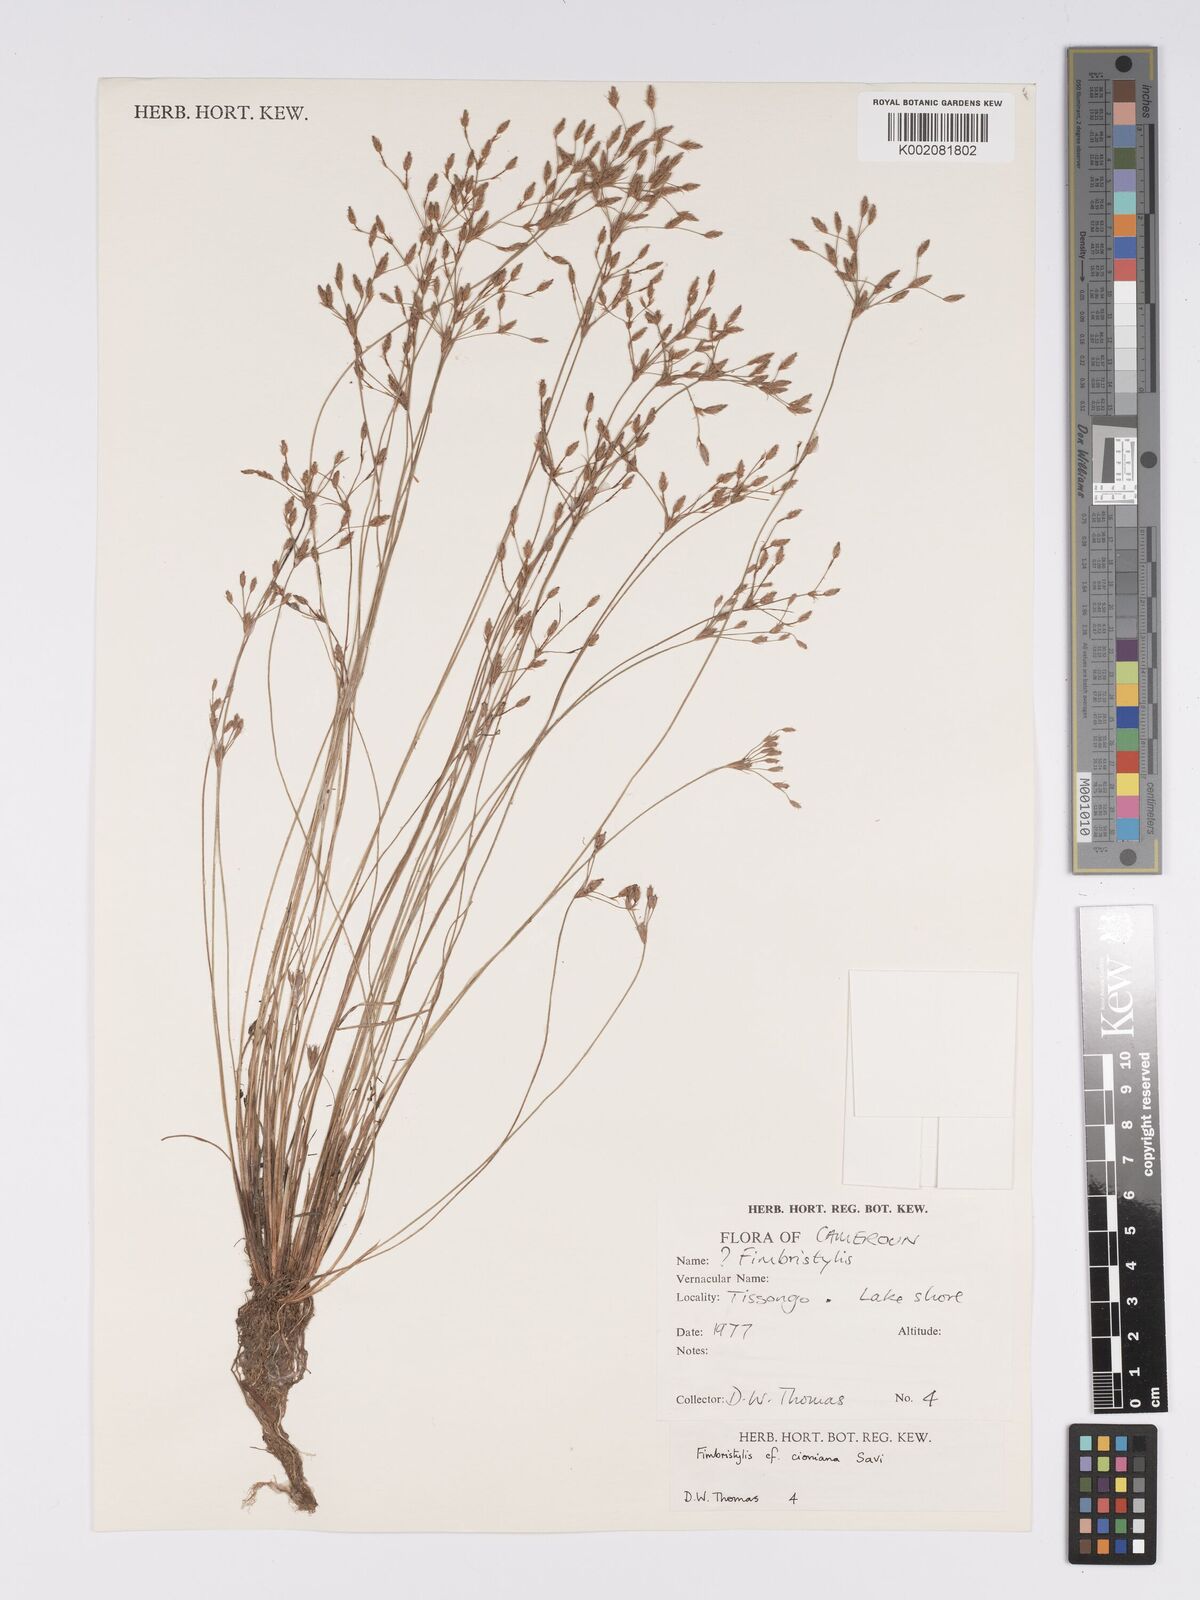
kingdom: Plantae
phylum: Tracheophyta
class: Liliopsida
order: Poales
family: Cyperaceae
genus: Bulbostylis
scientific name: Bulbostylis cioniana
